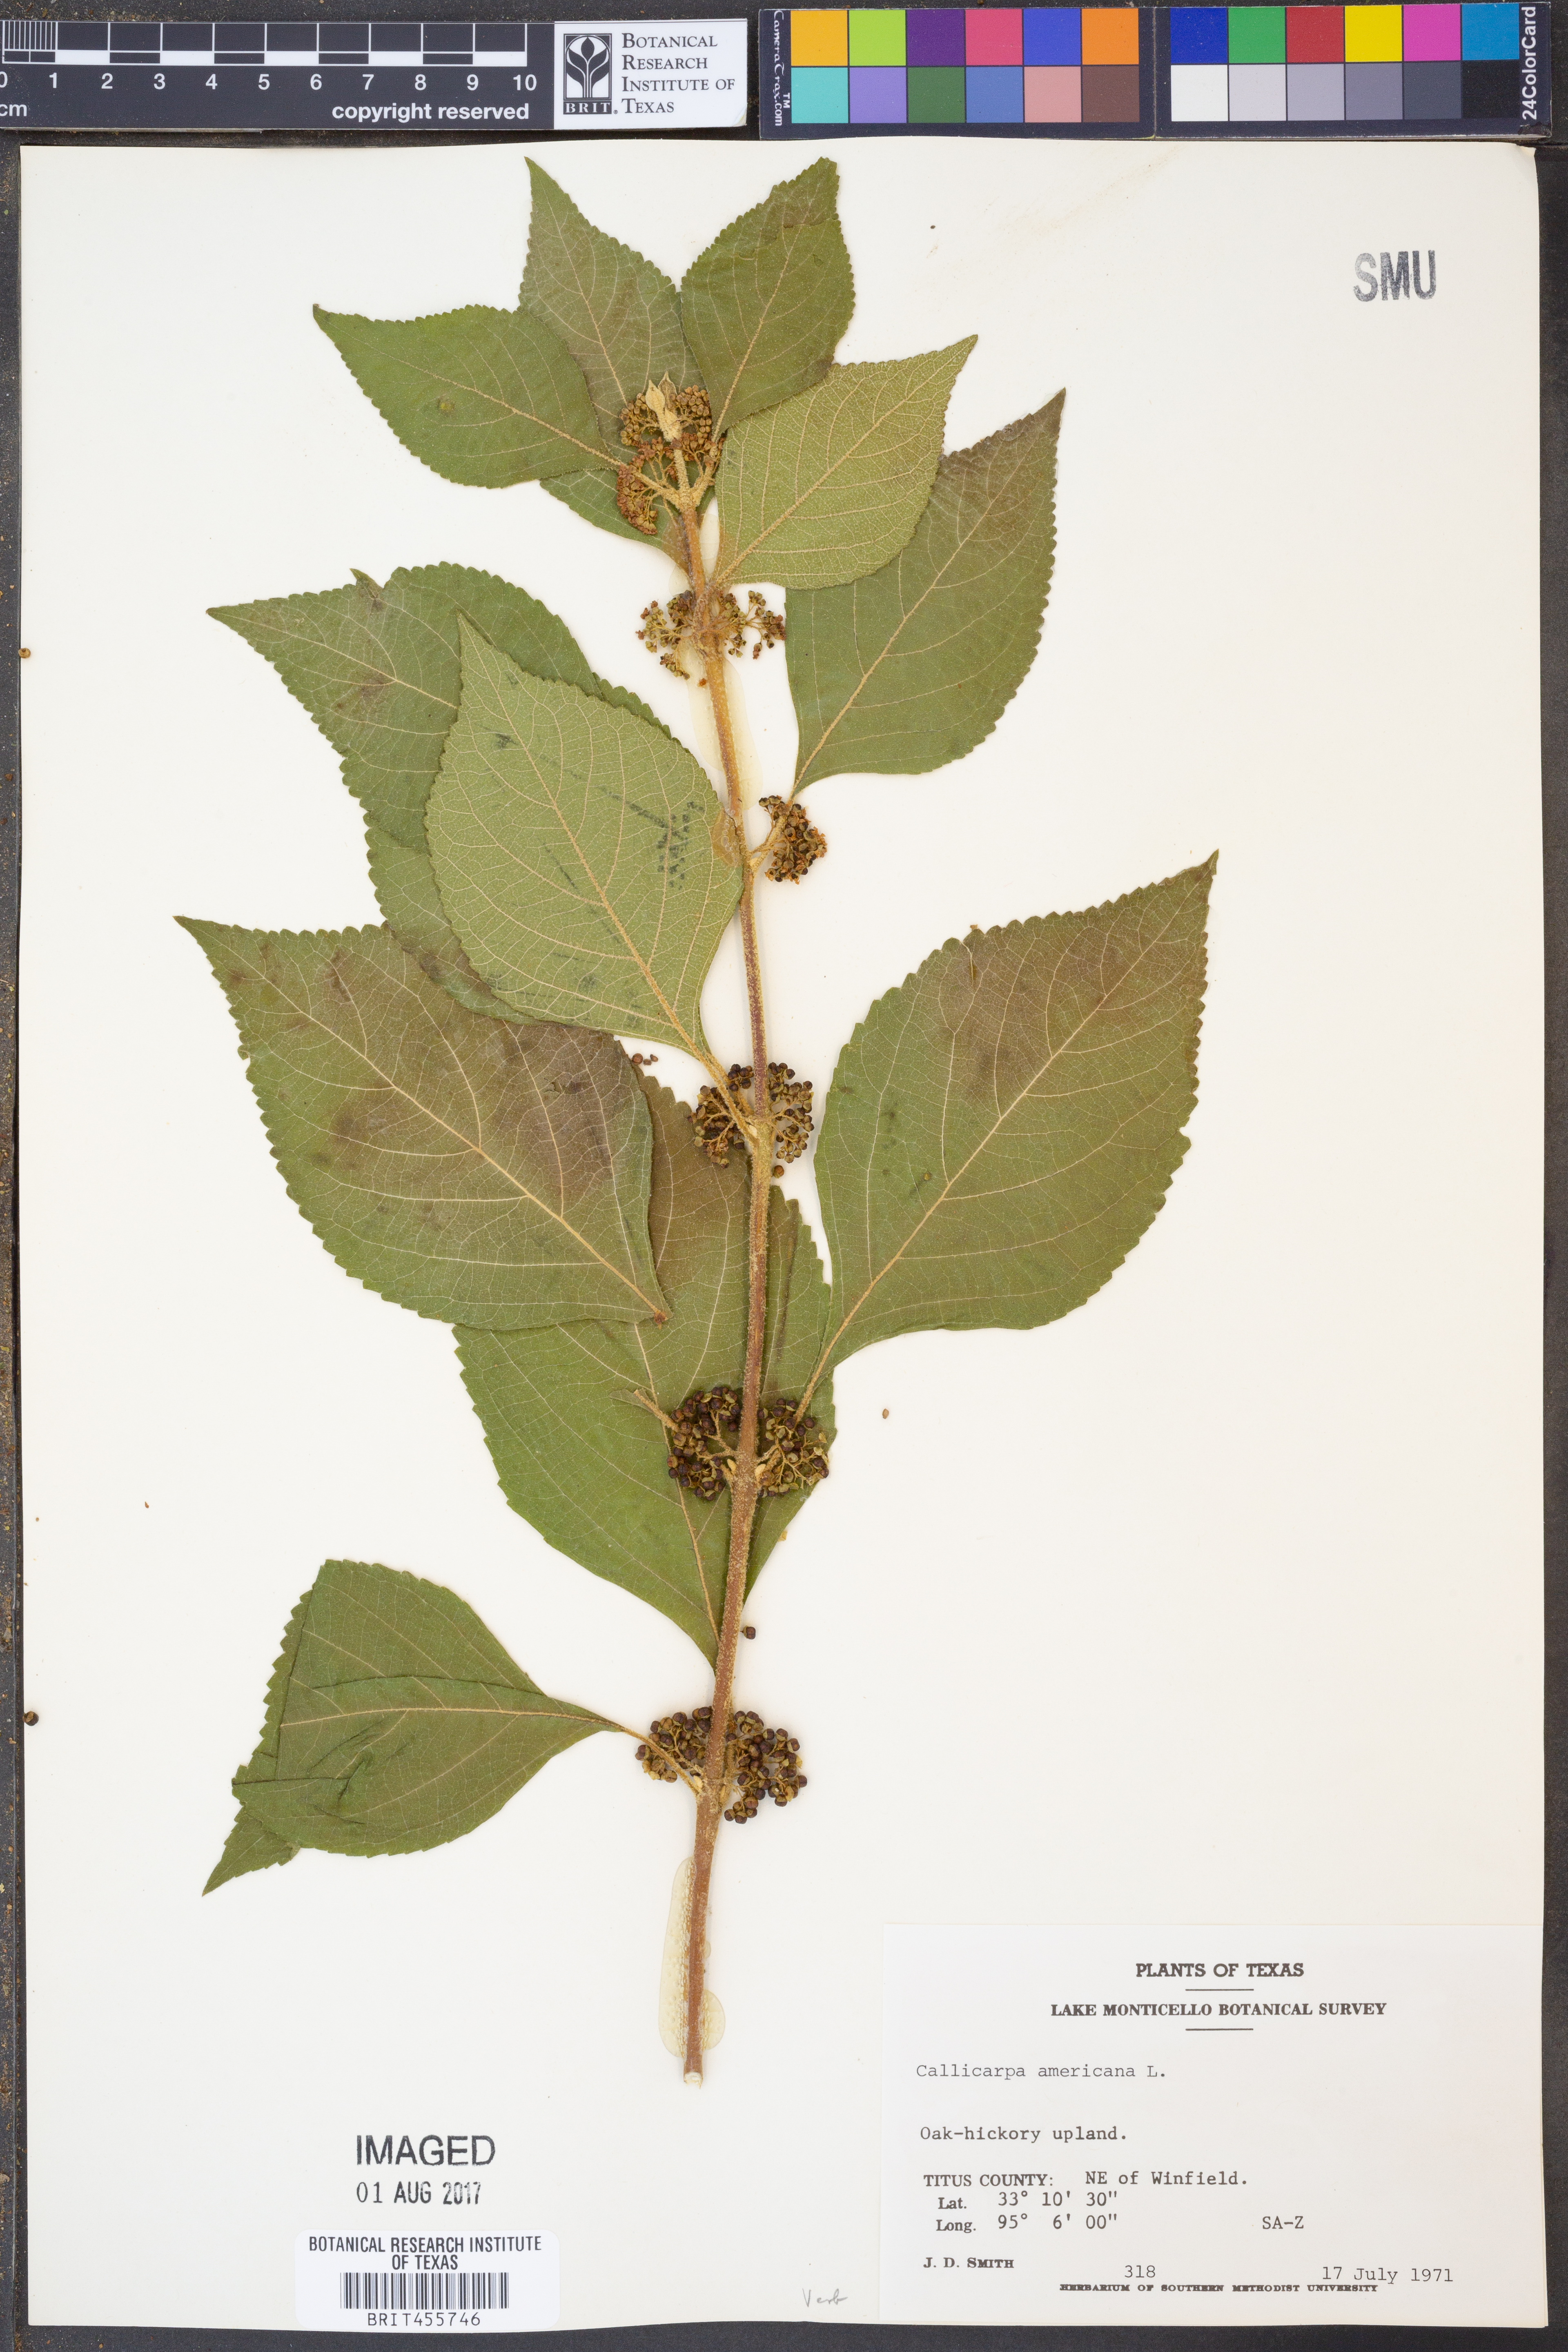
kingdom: Plantae
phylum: Tracheophyta
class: Magnoliopsida
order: Lamiales
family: Lamiaceae
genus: Callicarpa
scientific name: Callicarpa americana
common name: American beautyberry
